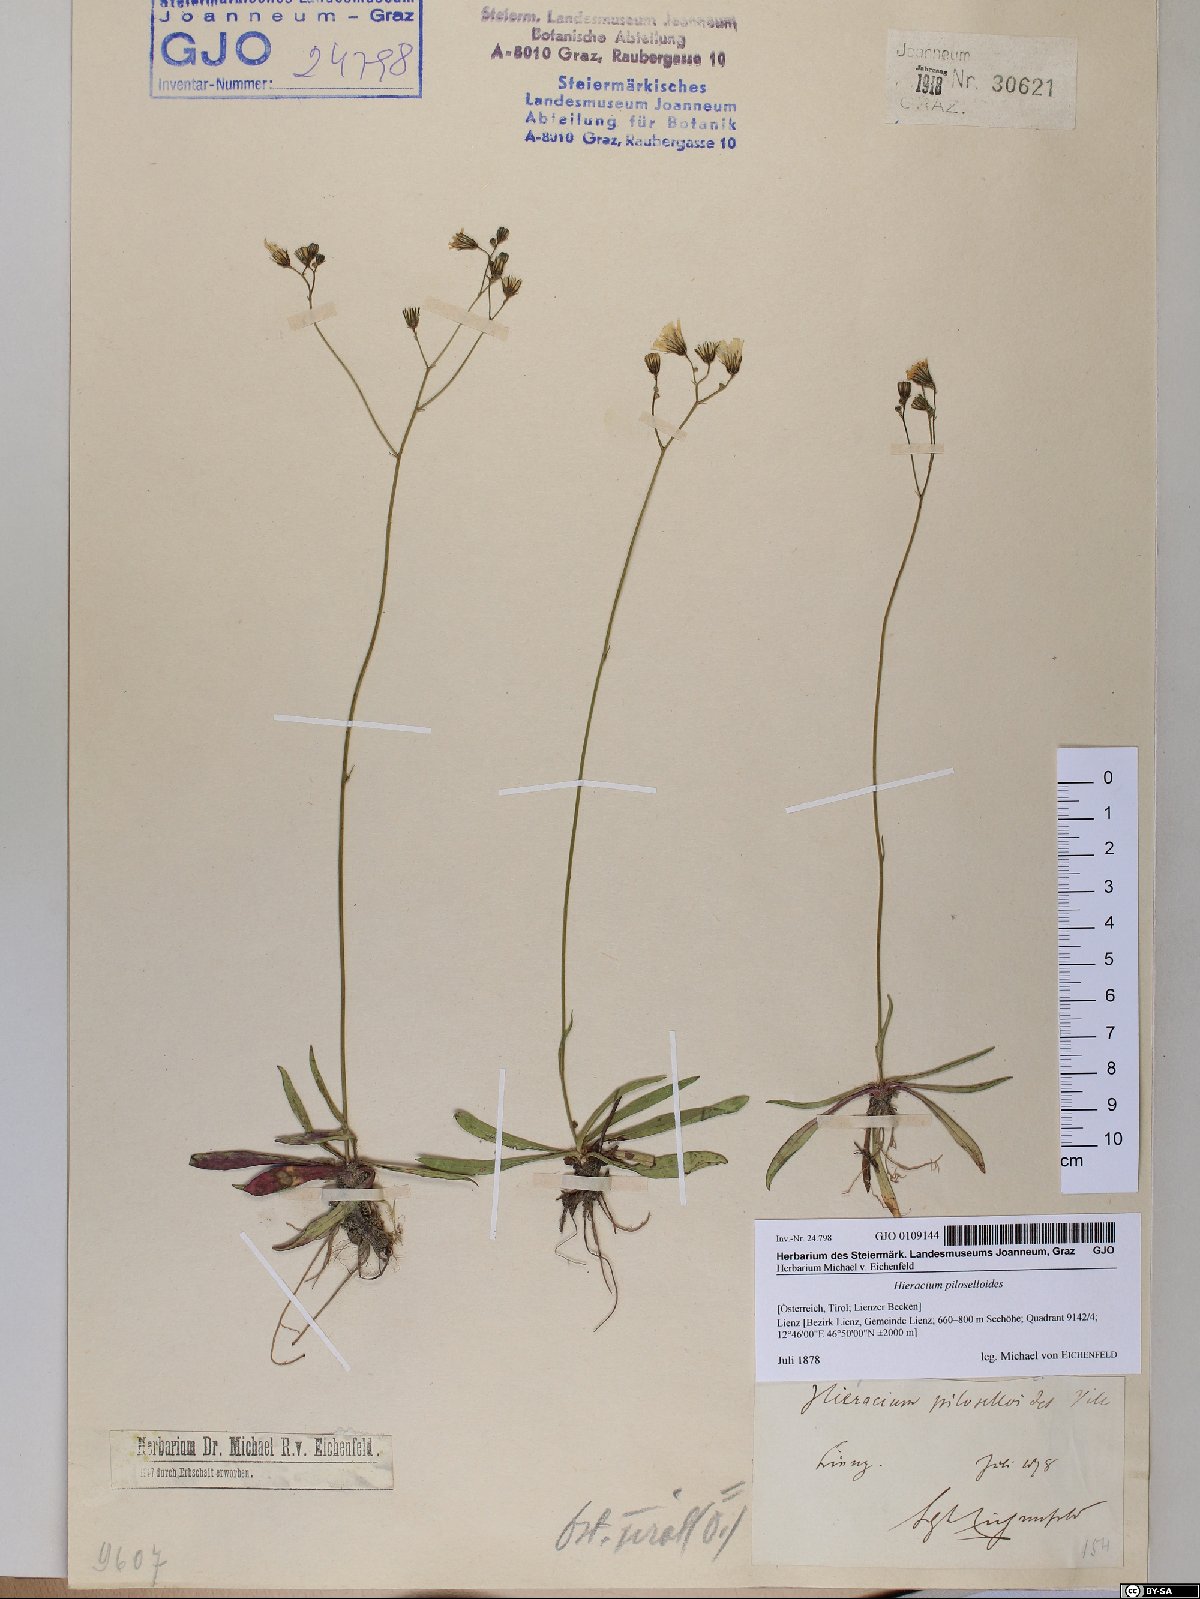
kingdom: Plantae
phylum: Tracheophyta
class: Magnoliopsida
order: Asterales
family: Asteraceae
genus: Pilosella
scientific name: Pilosella piloselloides
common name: Glaucous king-devil
